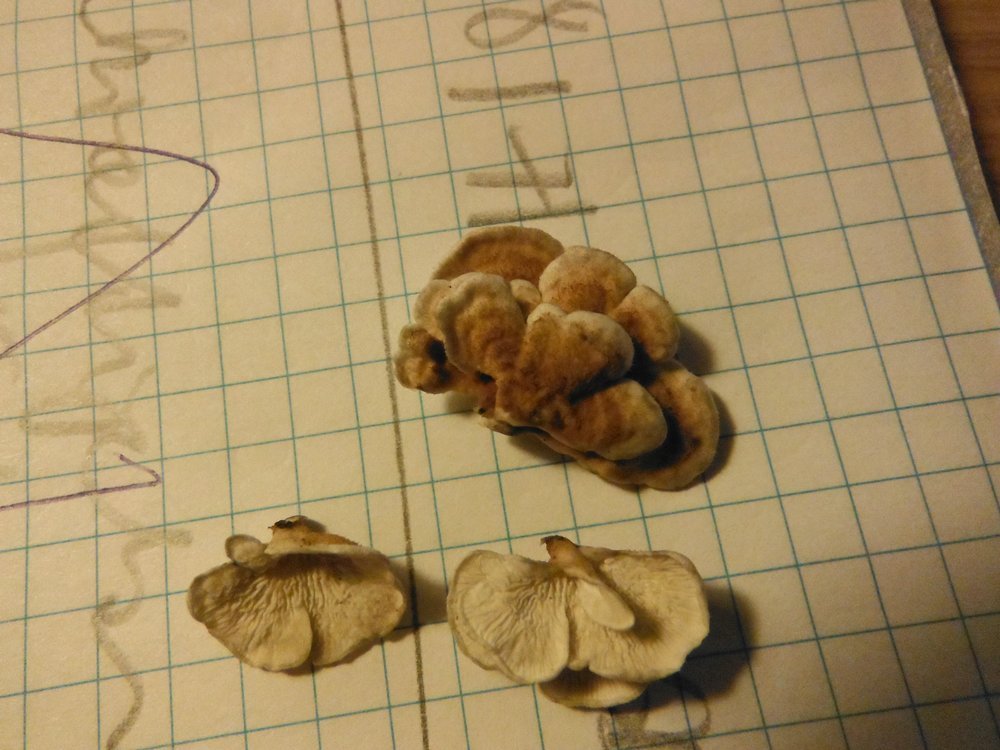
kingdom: Fungi
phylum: Basidiomycota
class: Agaricomycetes
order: Amylocorticiales
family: Amylocorticiaceae
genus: Plicaturopsis
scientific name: Plicaturopsis crispa
